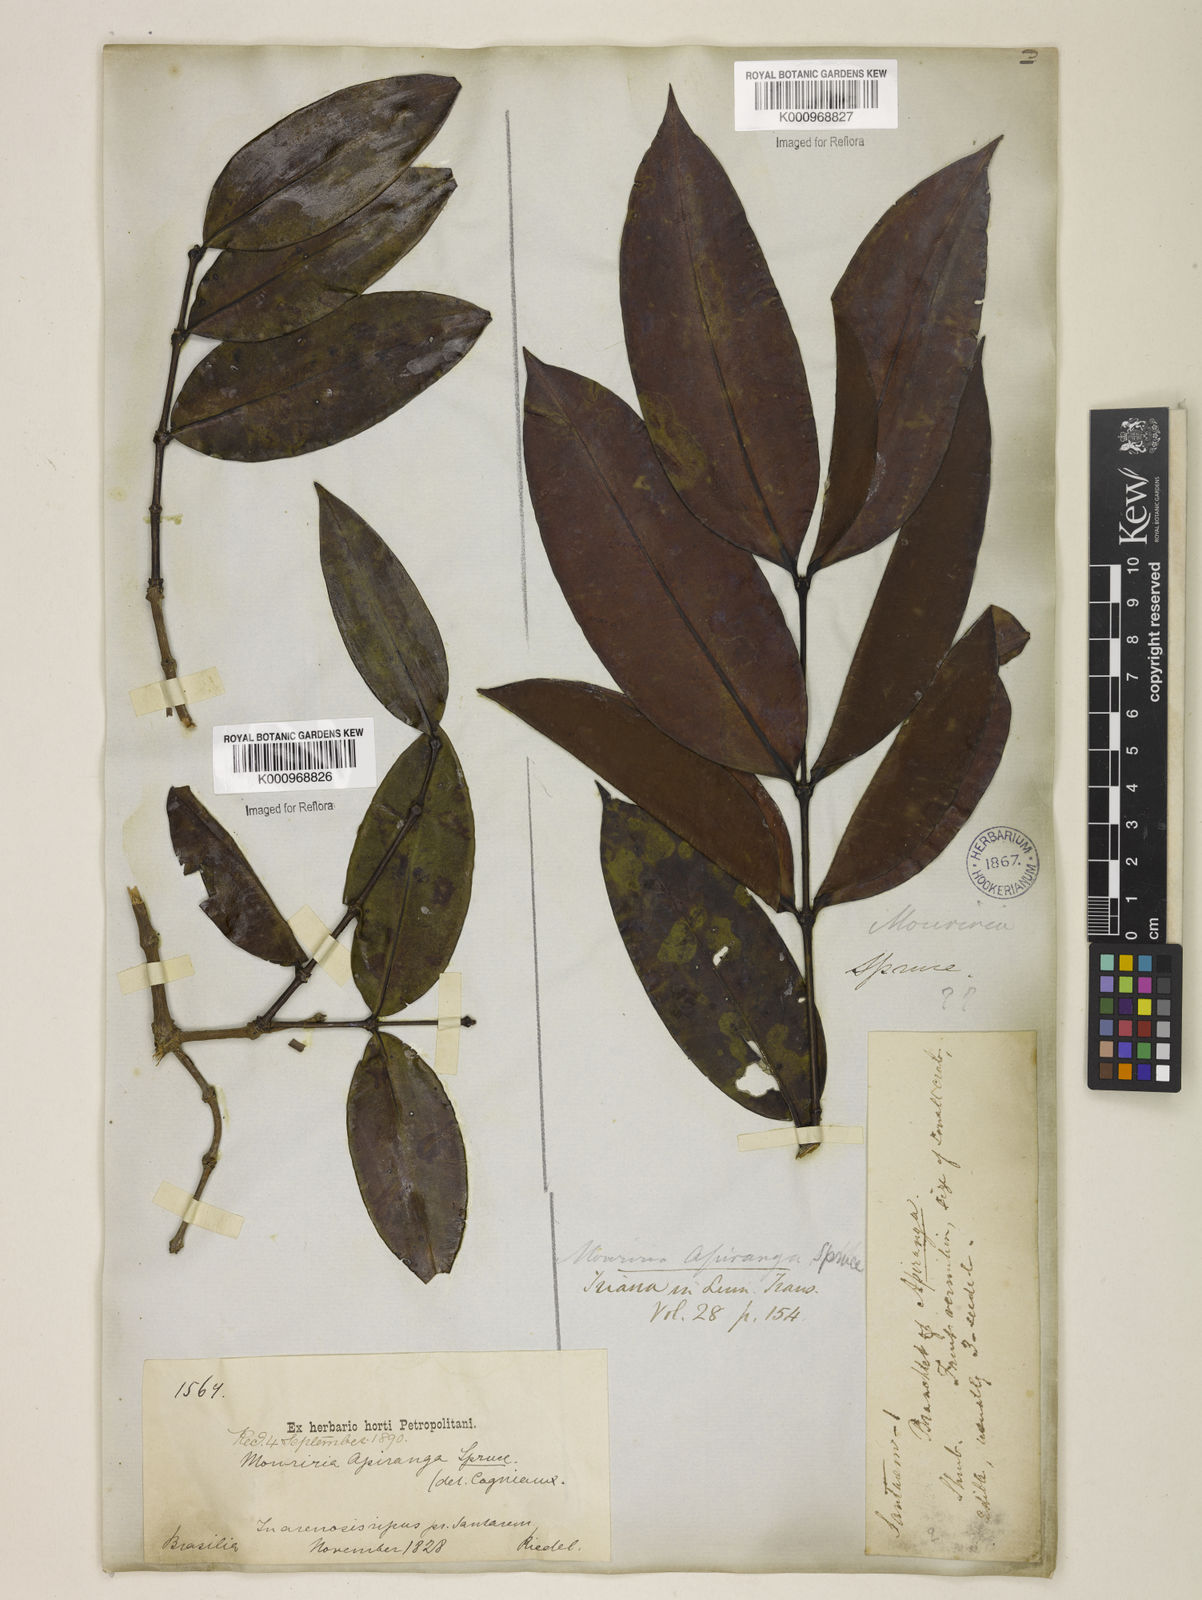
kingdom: Plantae
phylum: Tracheophyta
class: Magnoliopsida
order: Myrtales
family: Melastomataceae
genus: Mouriri
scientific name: Mouriri apiranga
